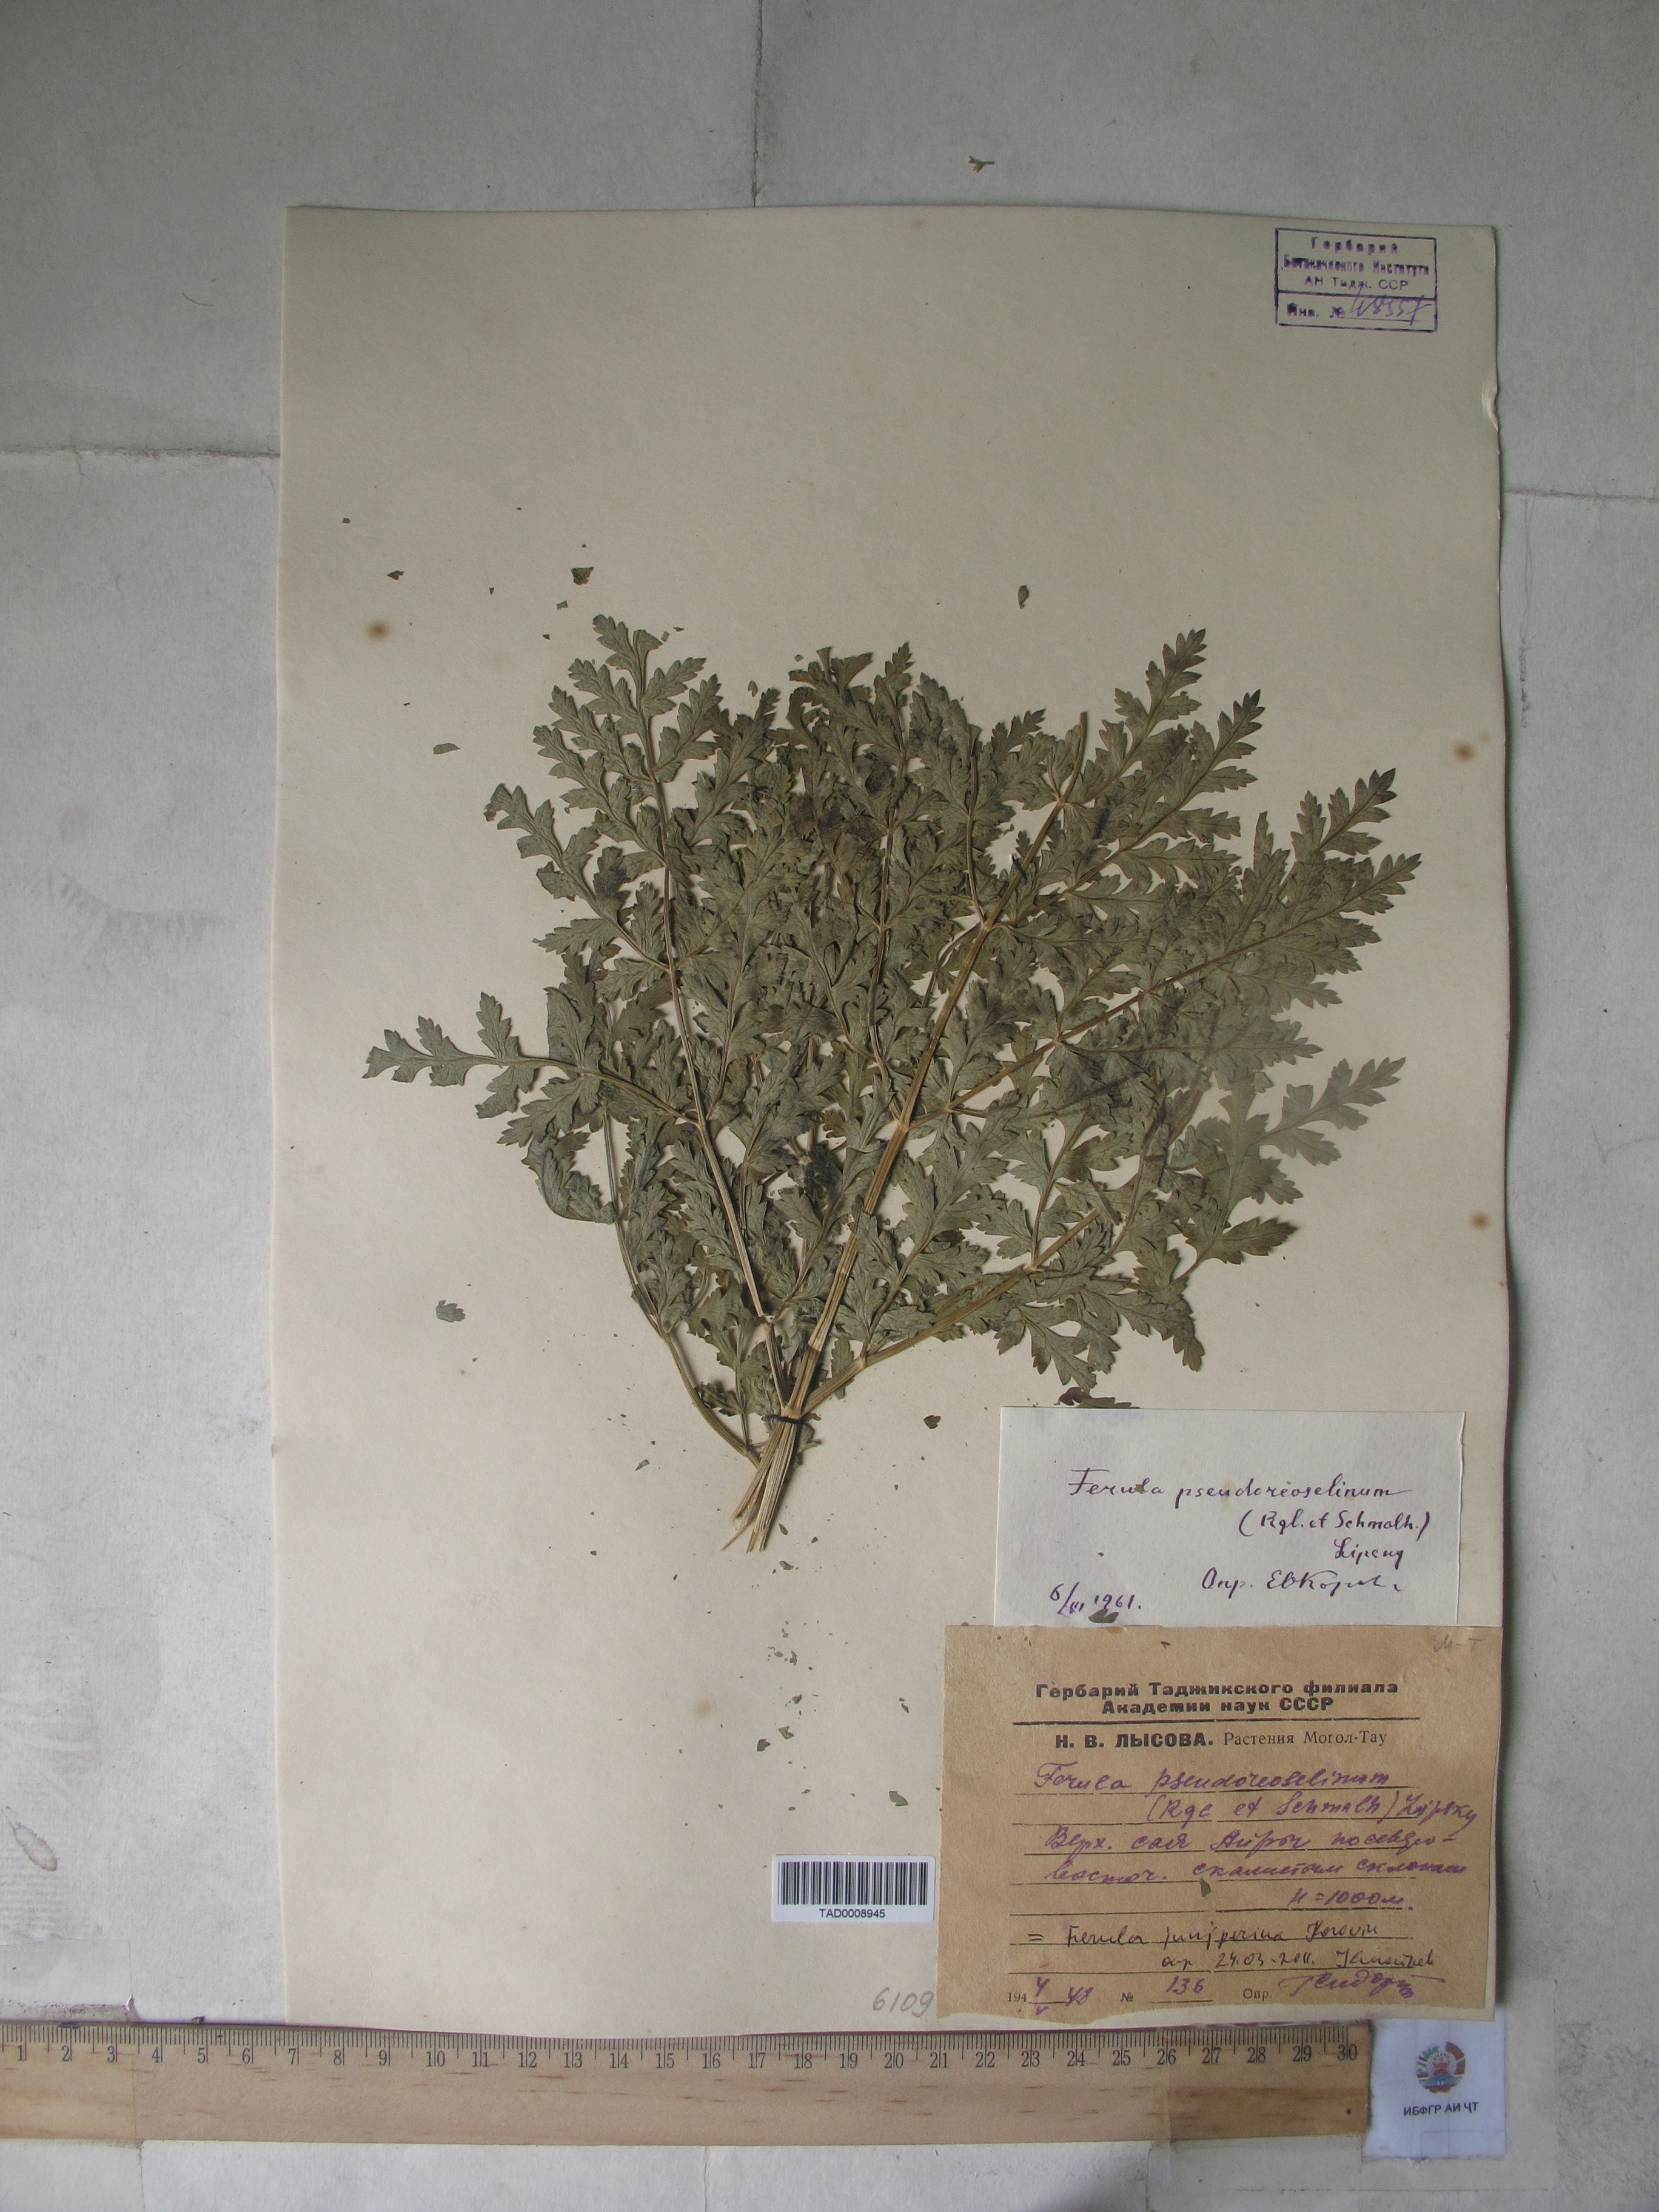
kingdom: Plantae
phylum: Tracheophyta
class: Magnoliopsida
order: Apiales
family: Apiaceae
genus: Ferula
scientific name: Ferula kirialovii
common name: Kumot
